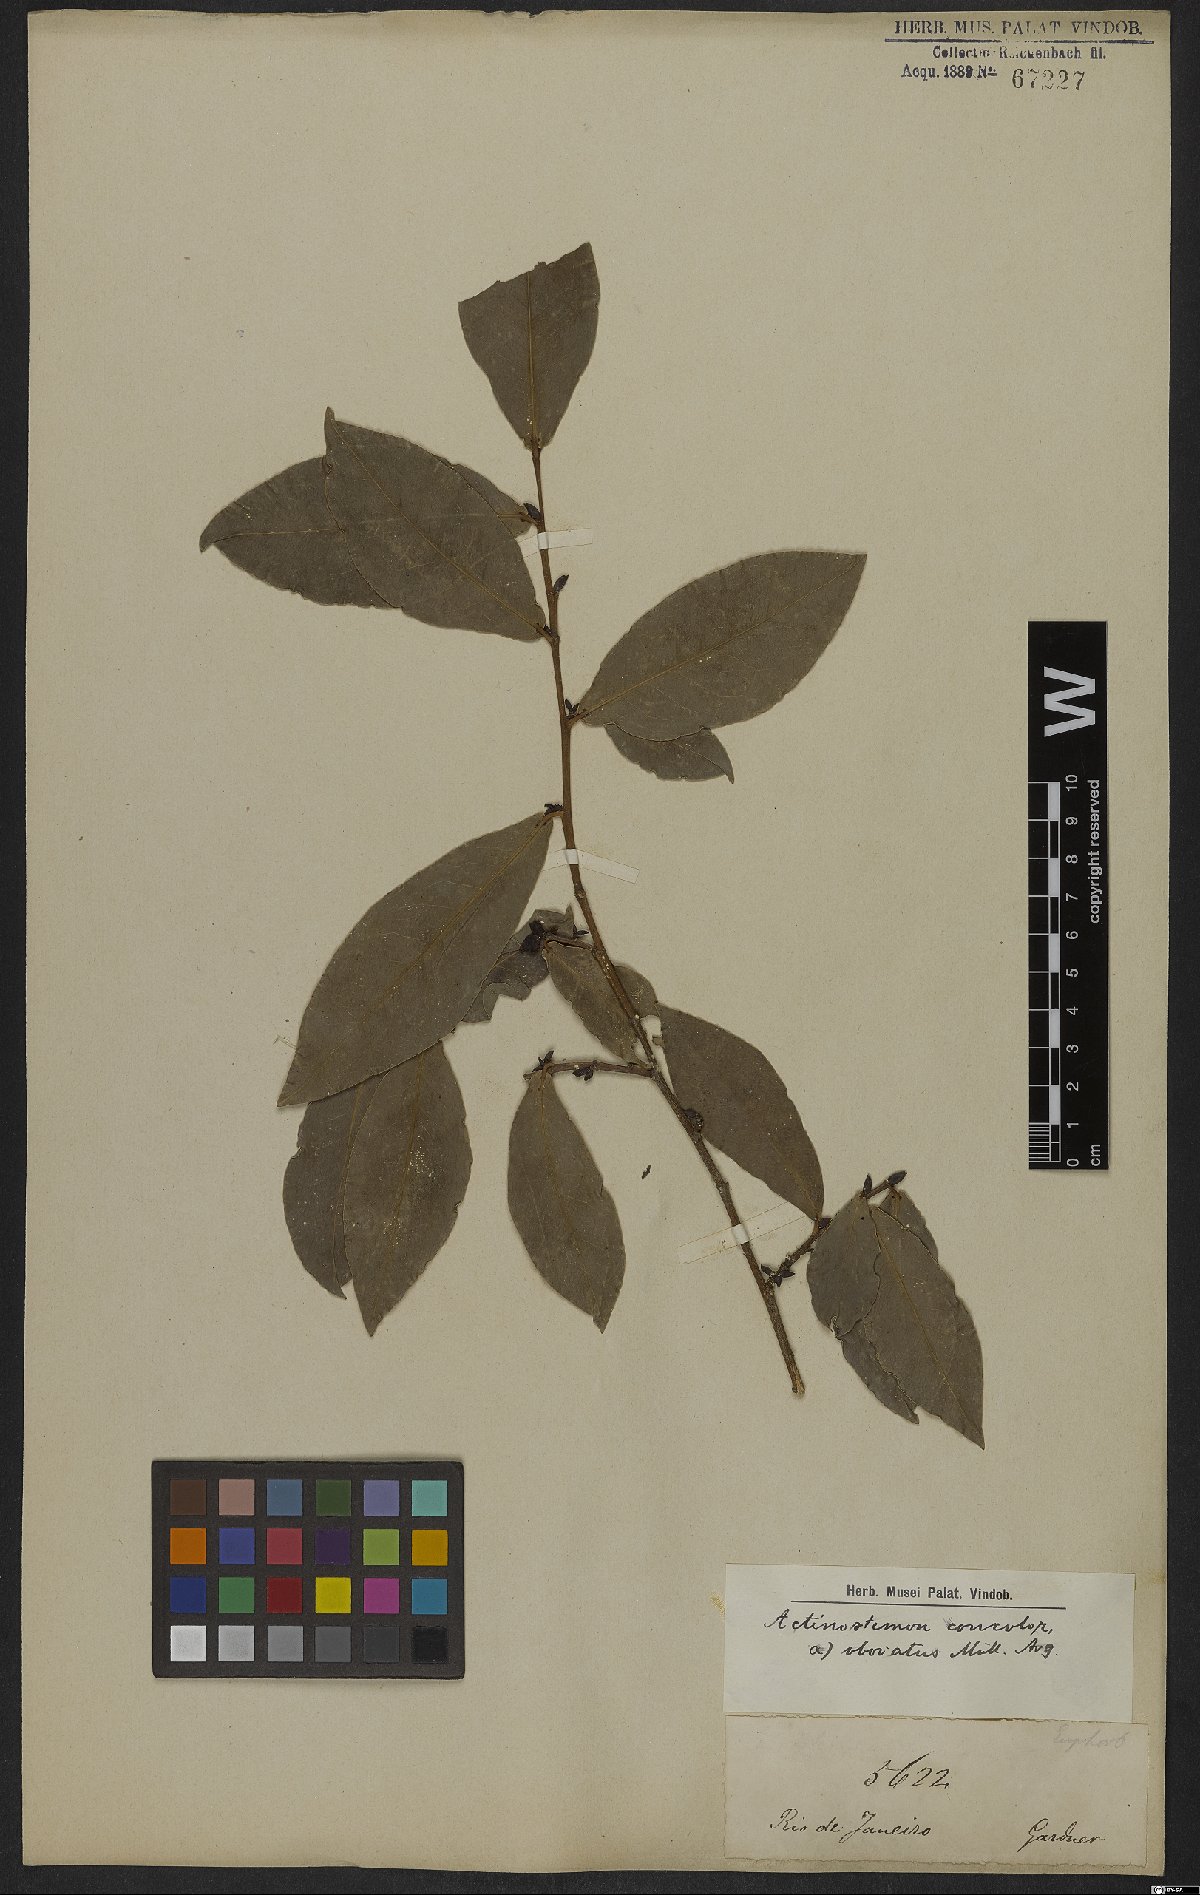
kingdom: Plantae
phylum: Tracheophyta
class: Magnoliopsida
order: Malpighiales
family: Euphorbiaceae
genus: Actinostemon
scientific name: Actinostemon concolor
